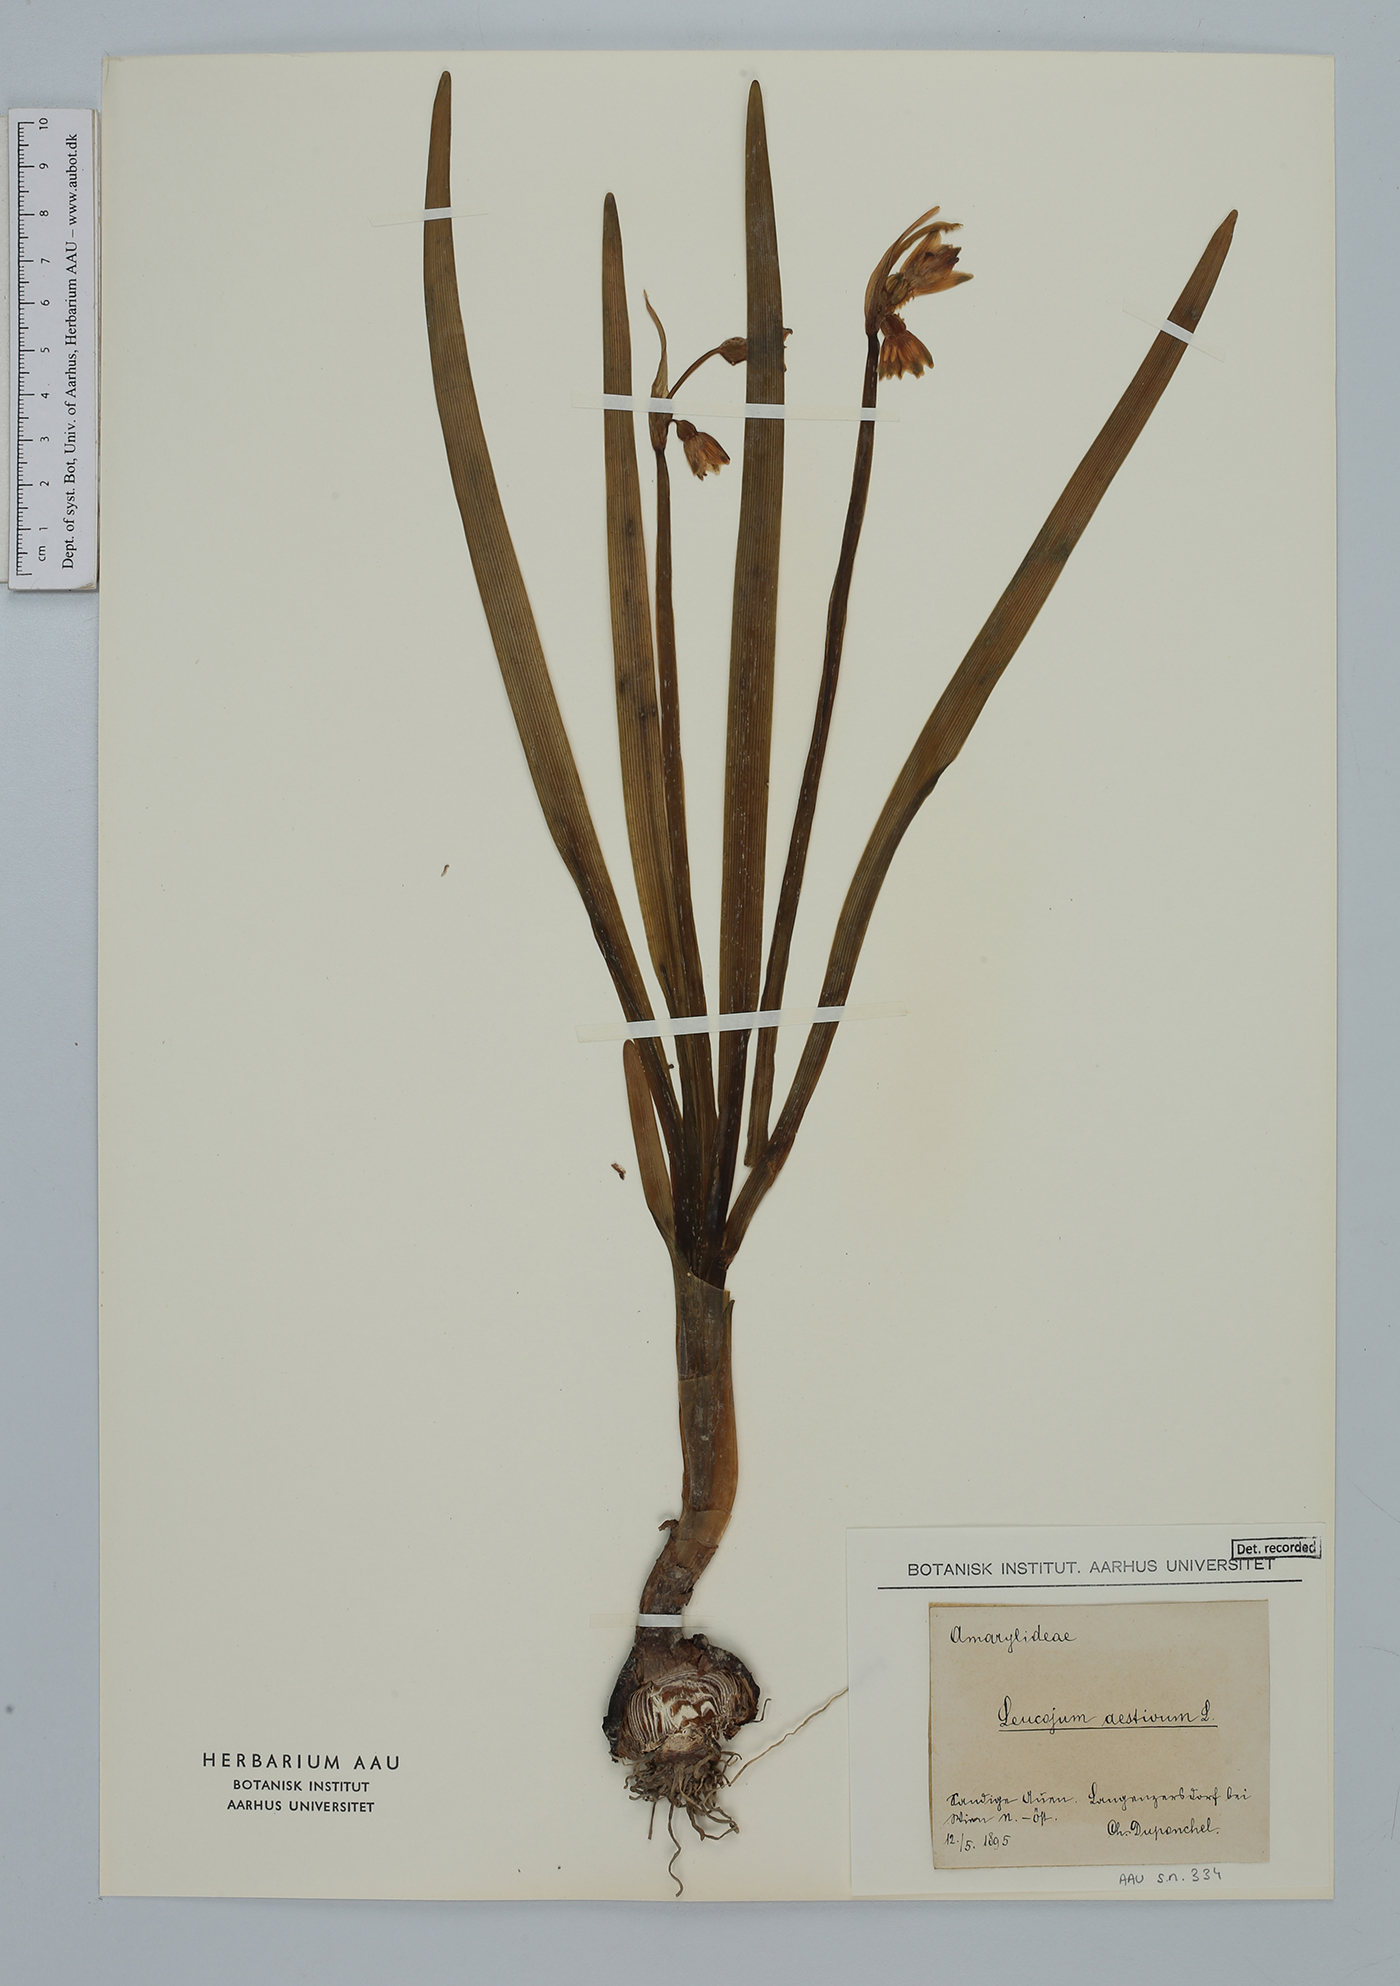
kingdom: Plantae
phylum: Tracheophyta
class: Liliopsida
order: Asparagales
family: Amaryllidaceae
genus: Leucojum
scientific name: Leucojum aestivum
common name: Summer snowflake
